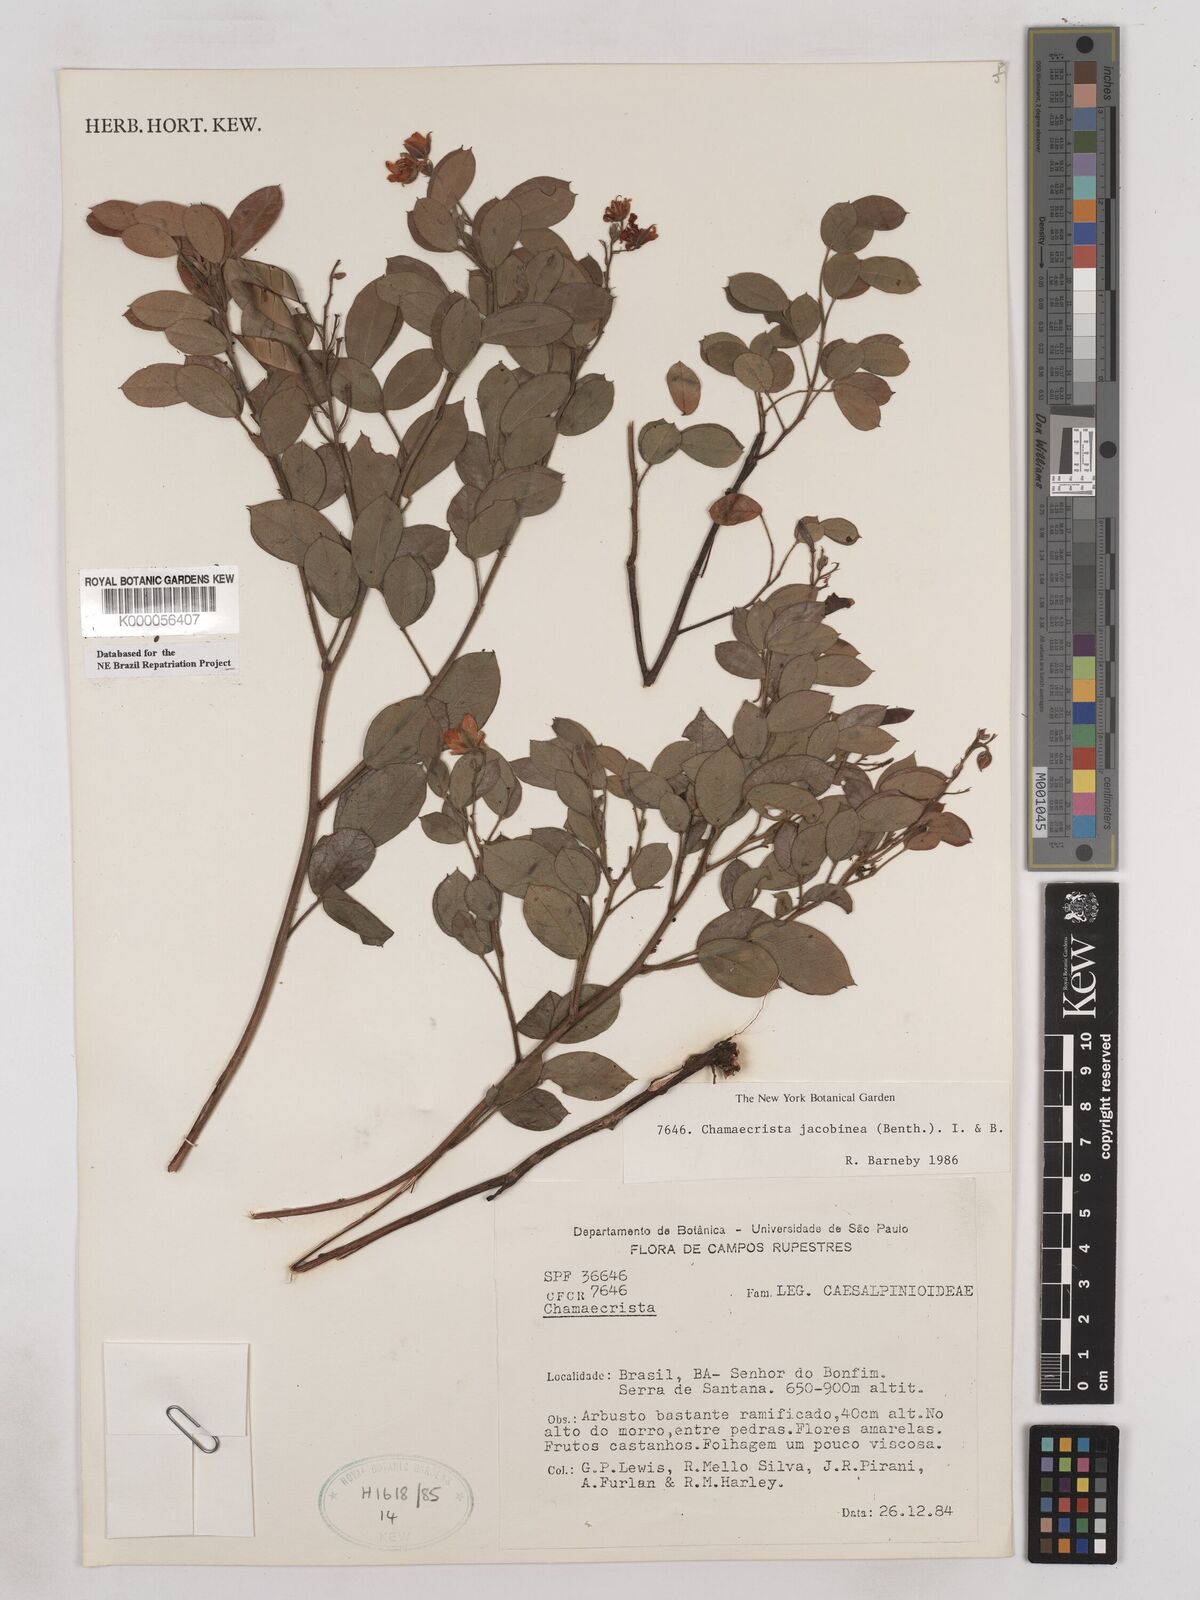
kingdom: Plantae
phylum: Tracheophyta
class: Magnoliopsida
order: Fabales
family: Fabaceae
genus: Chamaecrista
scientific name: Chamaecrista jacobinea
